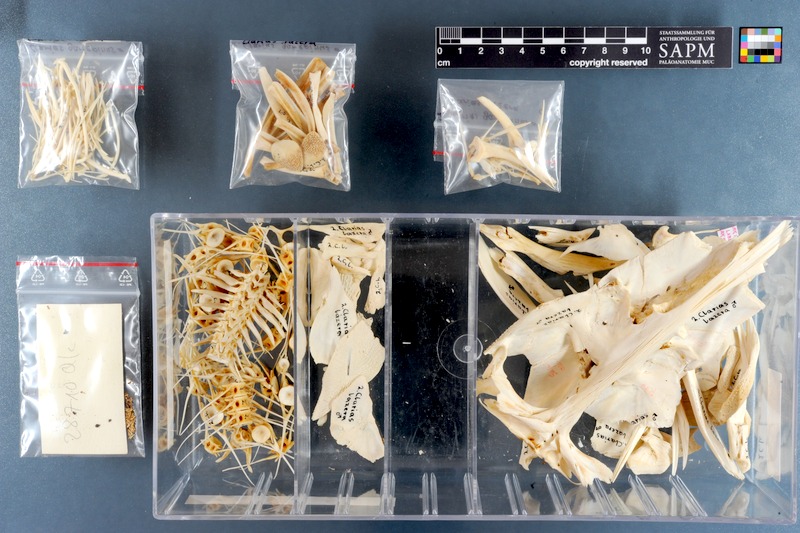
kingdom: Animalia
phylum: Chordata
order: Siluriformes
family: Clariidae
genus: Clarias
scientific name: Clarias gariepinus
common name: African catfish
